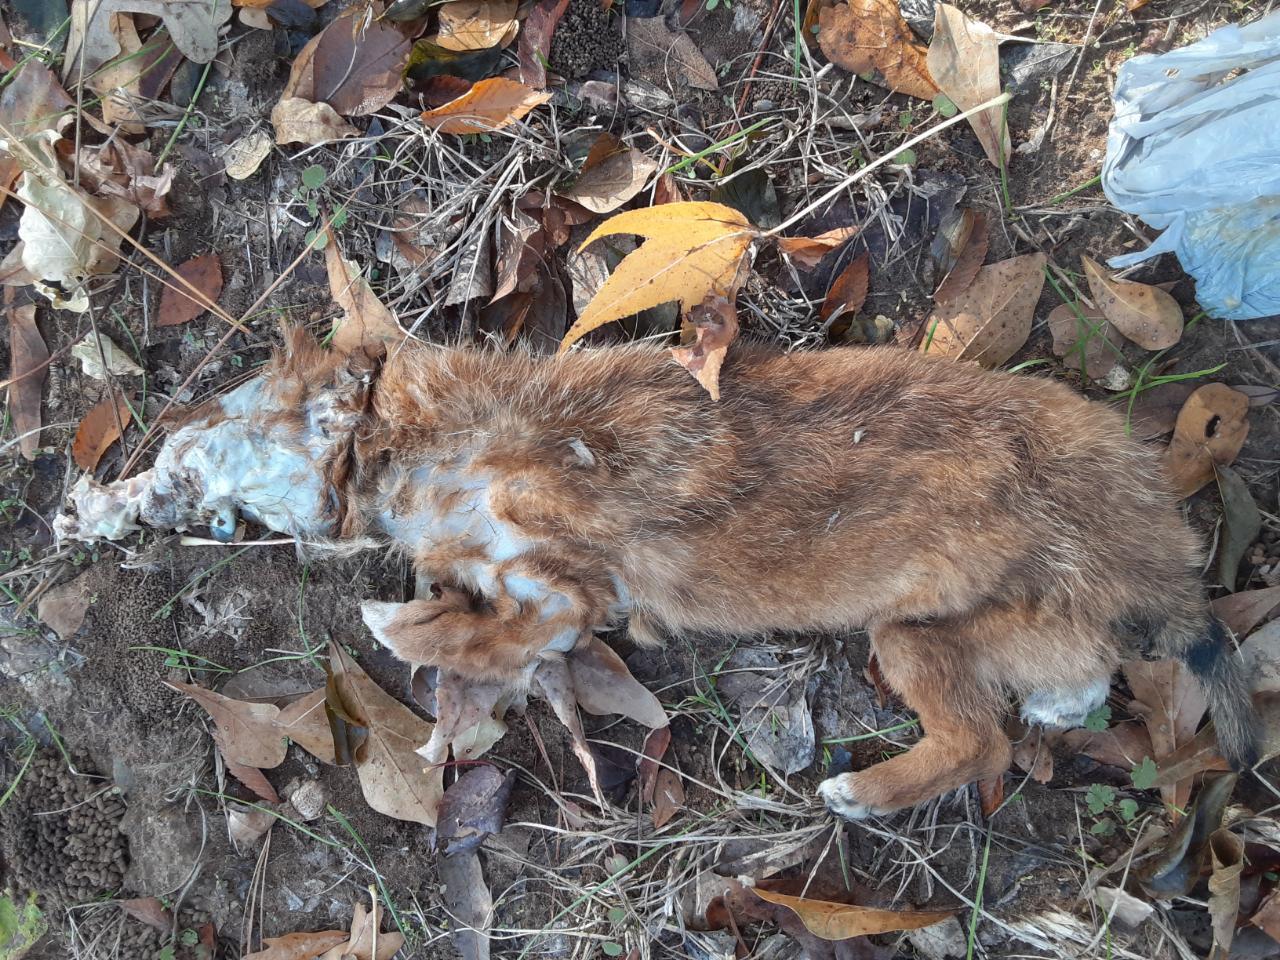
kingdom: Animalia
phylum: Chordata
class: Mammalia
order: Carnivora
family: Canidae
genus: Canis
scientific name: Canis lupus
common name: Gray wolf
